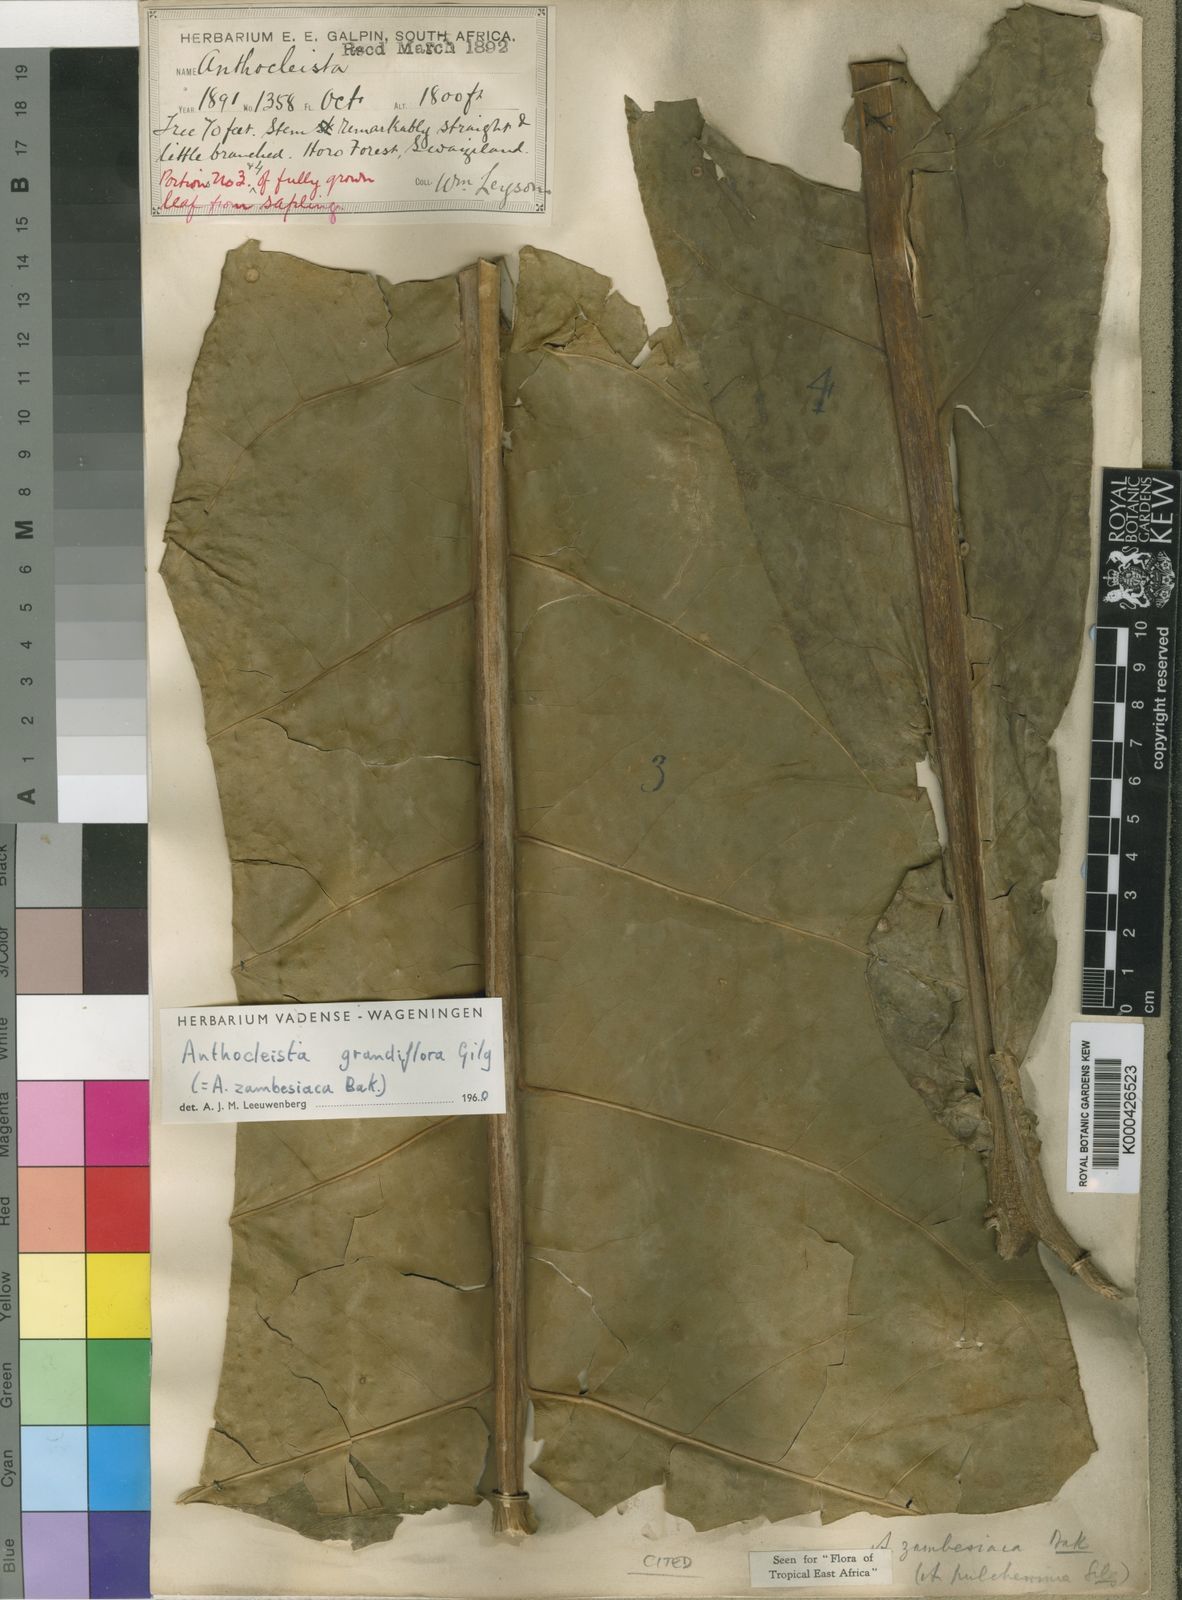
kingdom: Plantae
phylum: Tracheophyta
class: Magnoliopsida
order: Gentianales
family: Gentianaceae
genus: Anthocleista
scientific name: Anthocleista grandiflora
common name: Forest big-leaf
